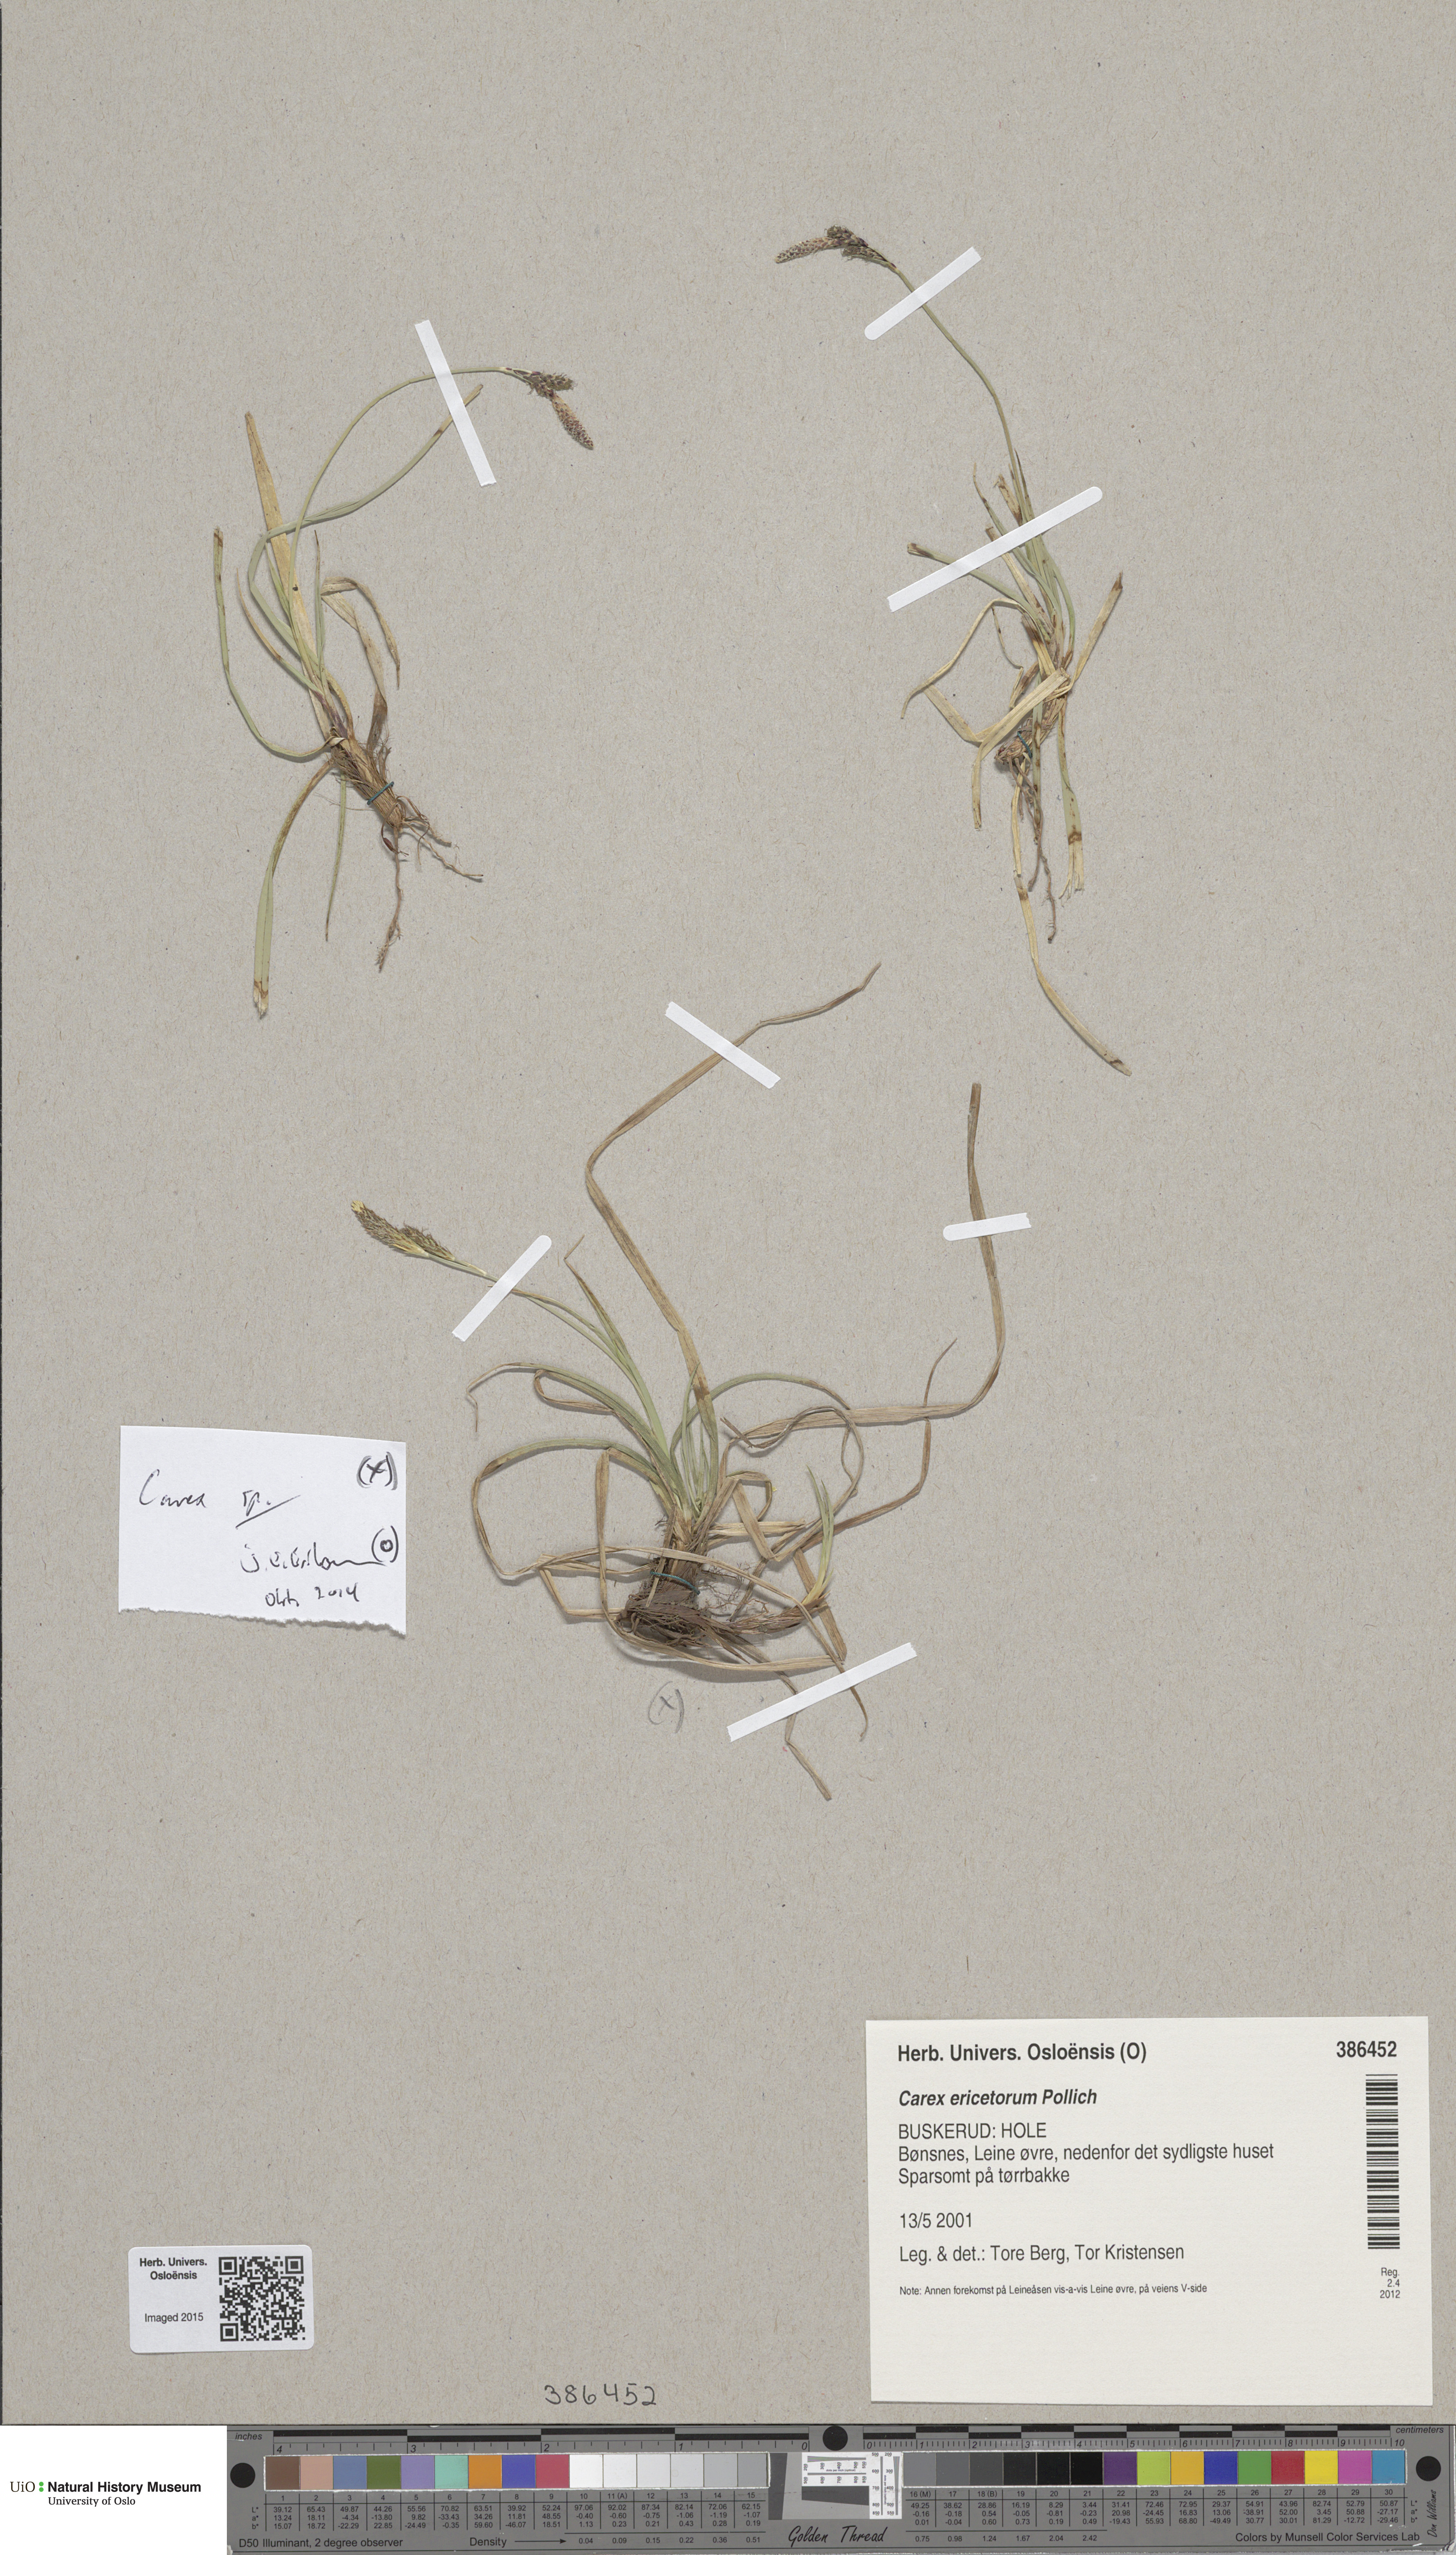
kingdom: Plantae
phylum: Tracheophyta
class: Liliopsida
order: Poales
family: Cyperaceae
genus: Carex
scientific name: Carex ericetorum
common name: Rare spring-sedge
